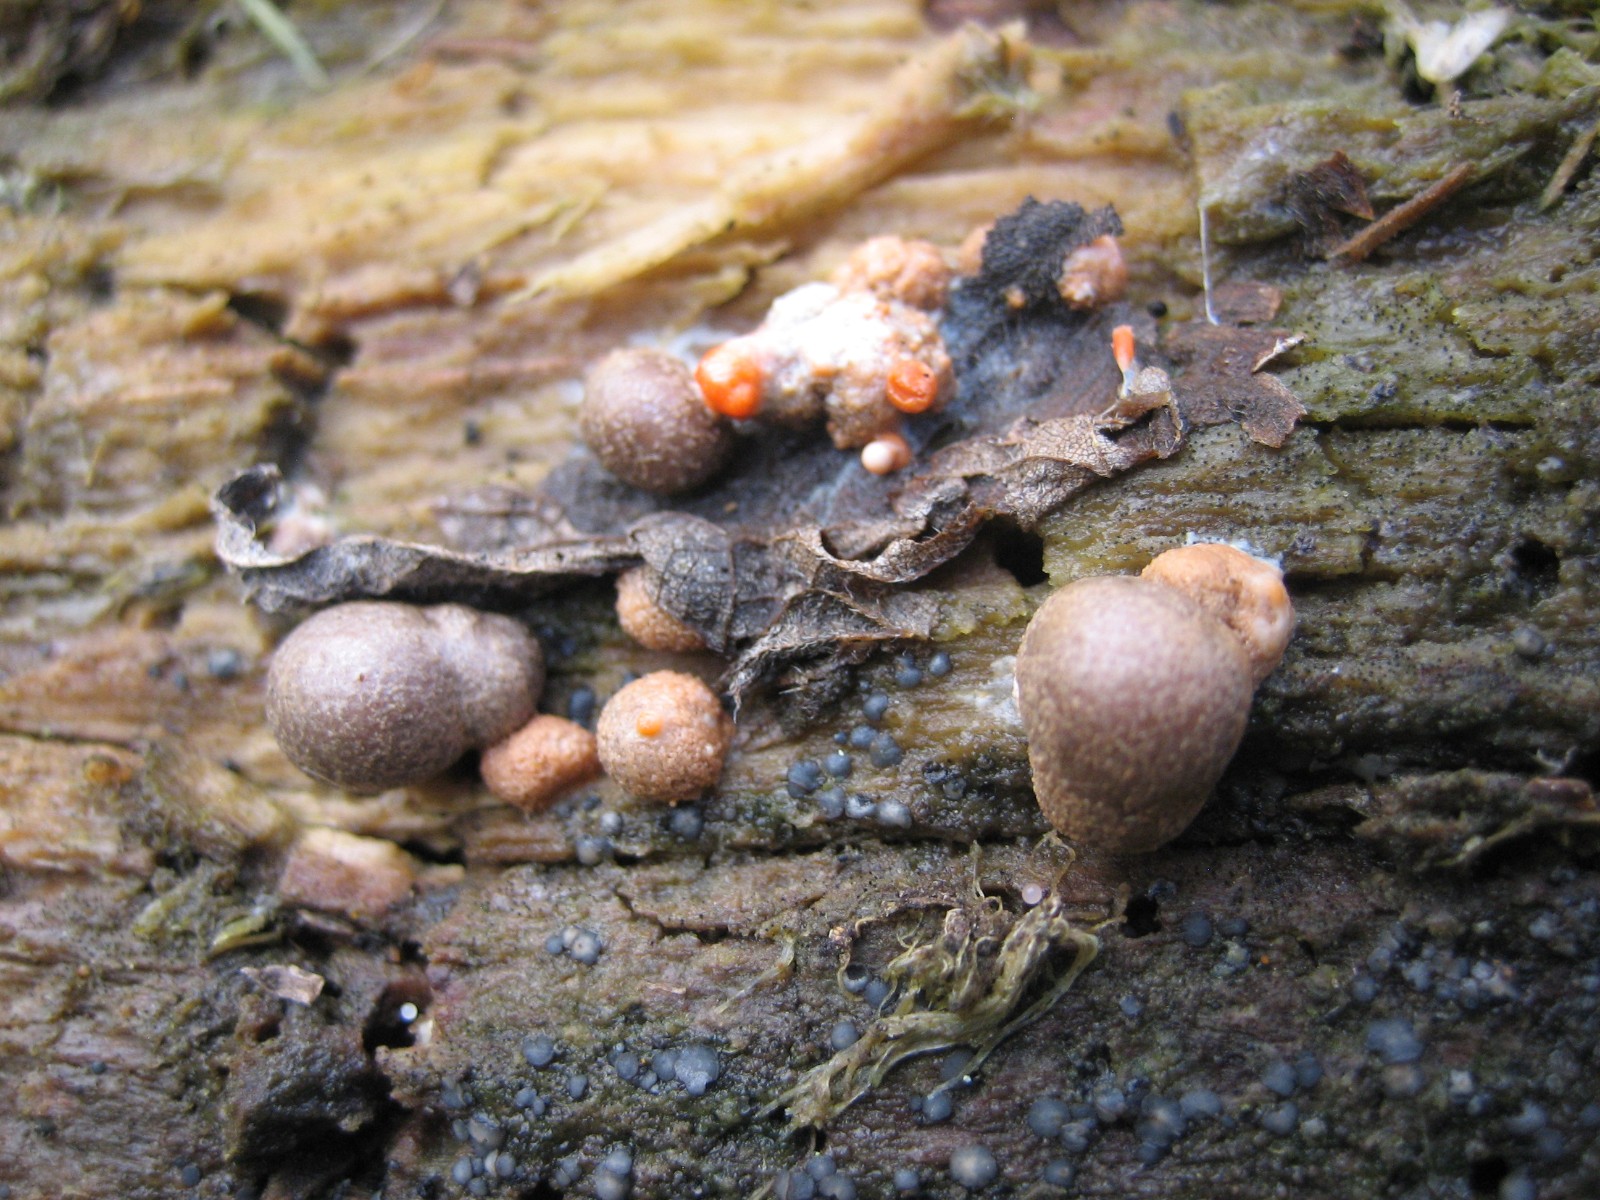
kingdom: Protozoa
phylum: Mycetozoa
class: Myxomycetes
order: Cribrariales
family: Tubiferaceae
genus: Lycogala
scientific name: Lycogala epidendrum
